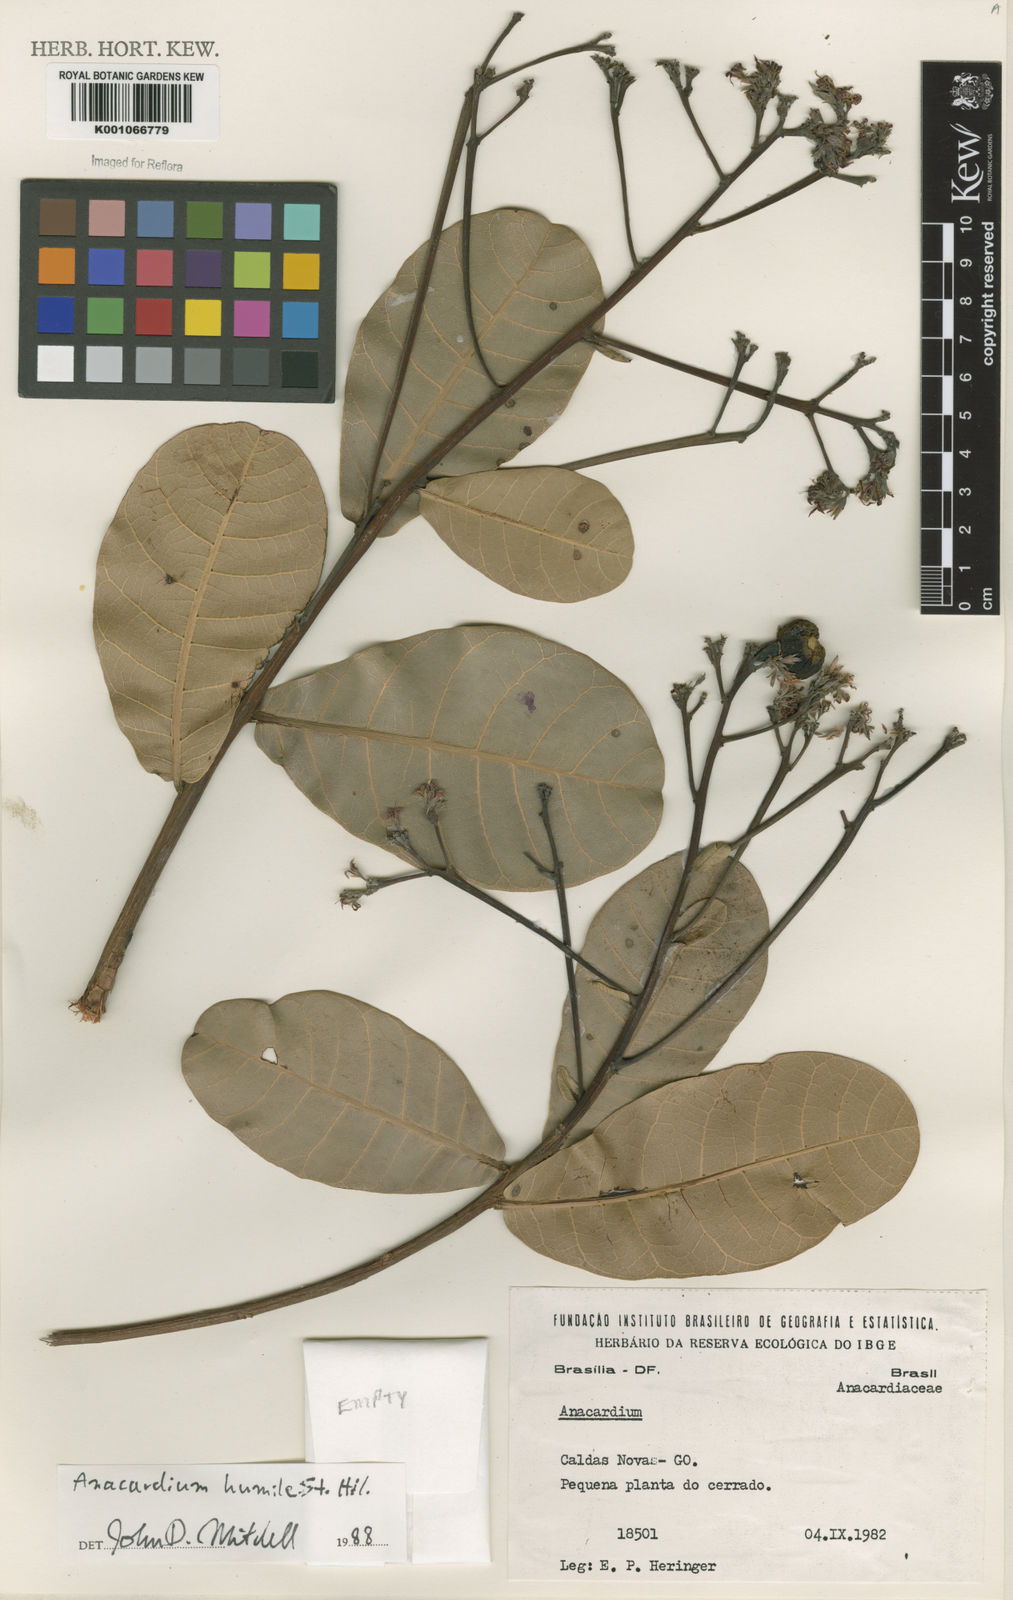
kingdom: Plantae
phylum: Tracheophyta
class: Magnoliopsida
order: Sapindales
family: Anacardiaceae
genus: Anacardium
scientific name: Anacardium humile
